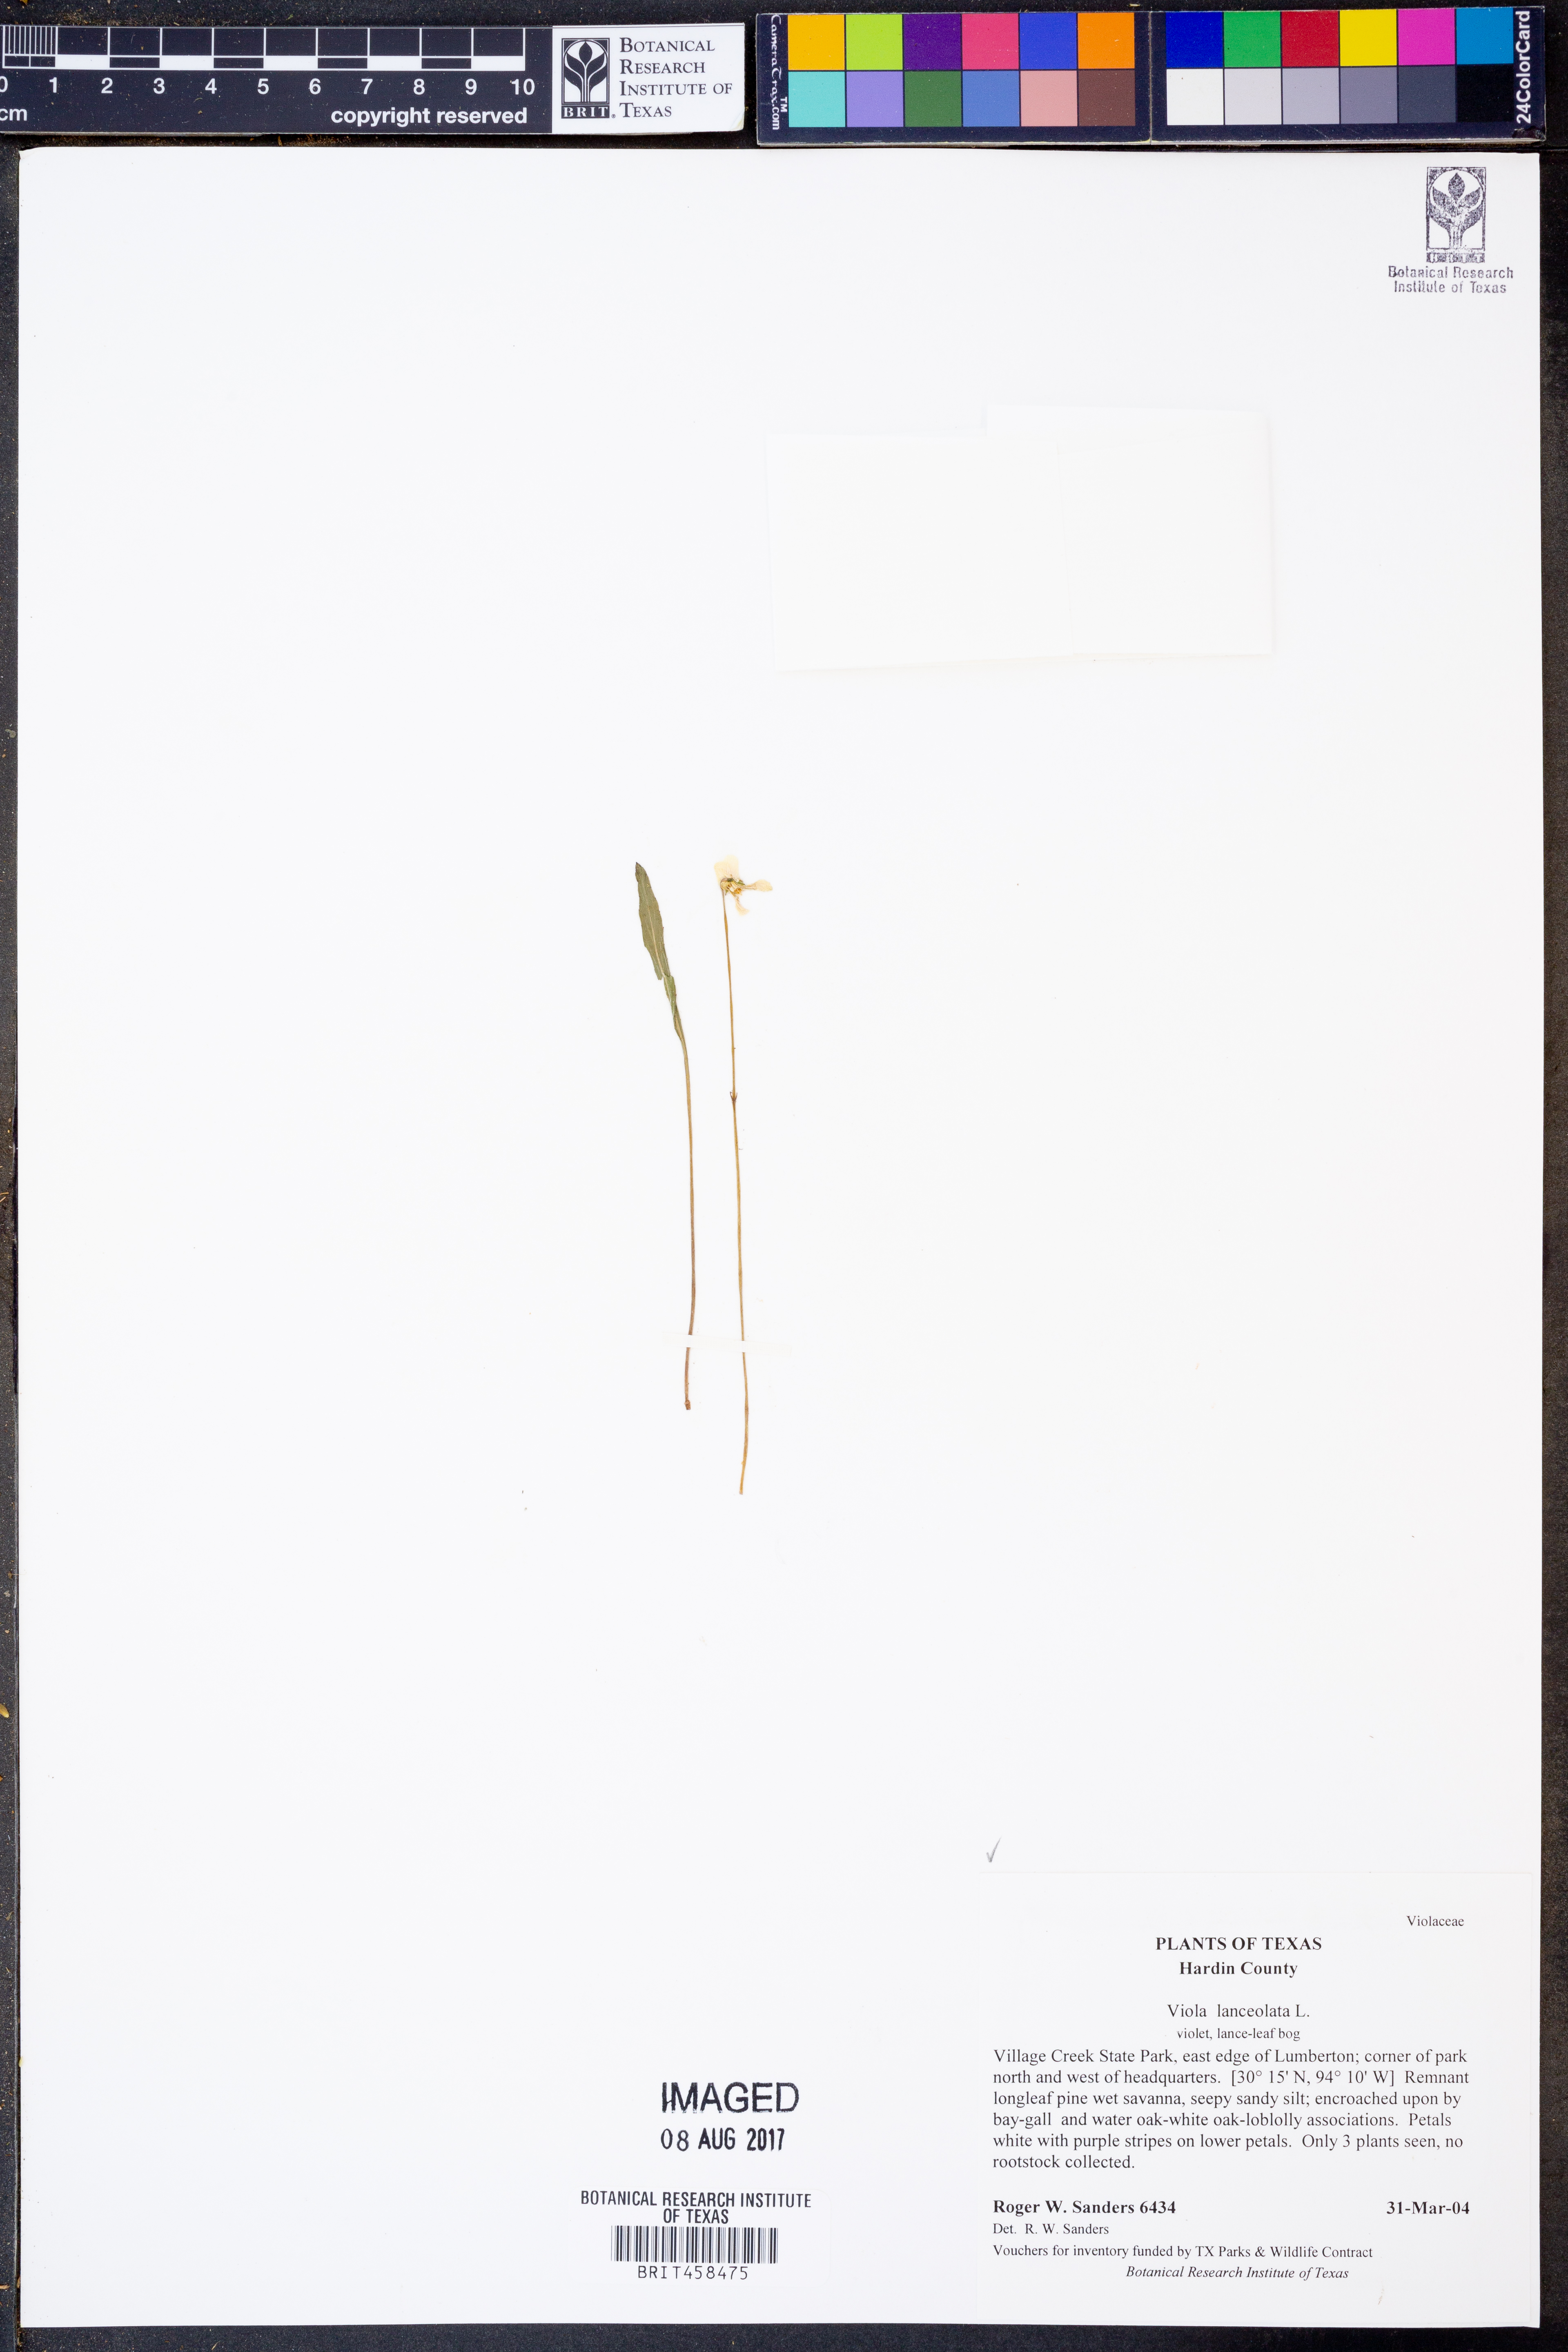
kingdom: Plantae
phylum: Tracheophyta
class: Magnoliopsida
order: Malpighiales
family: Violaceae
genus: Viola
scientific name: Viola lanceolata
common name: Bog white violet
